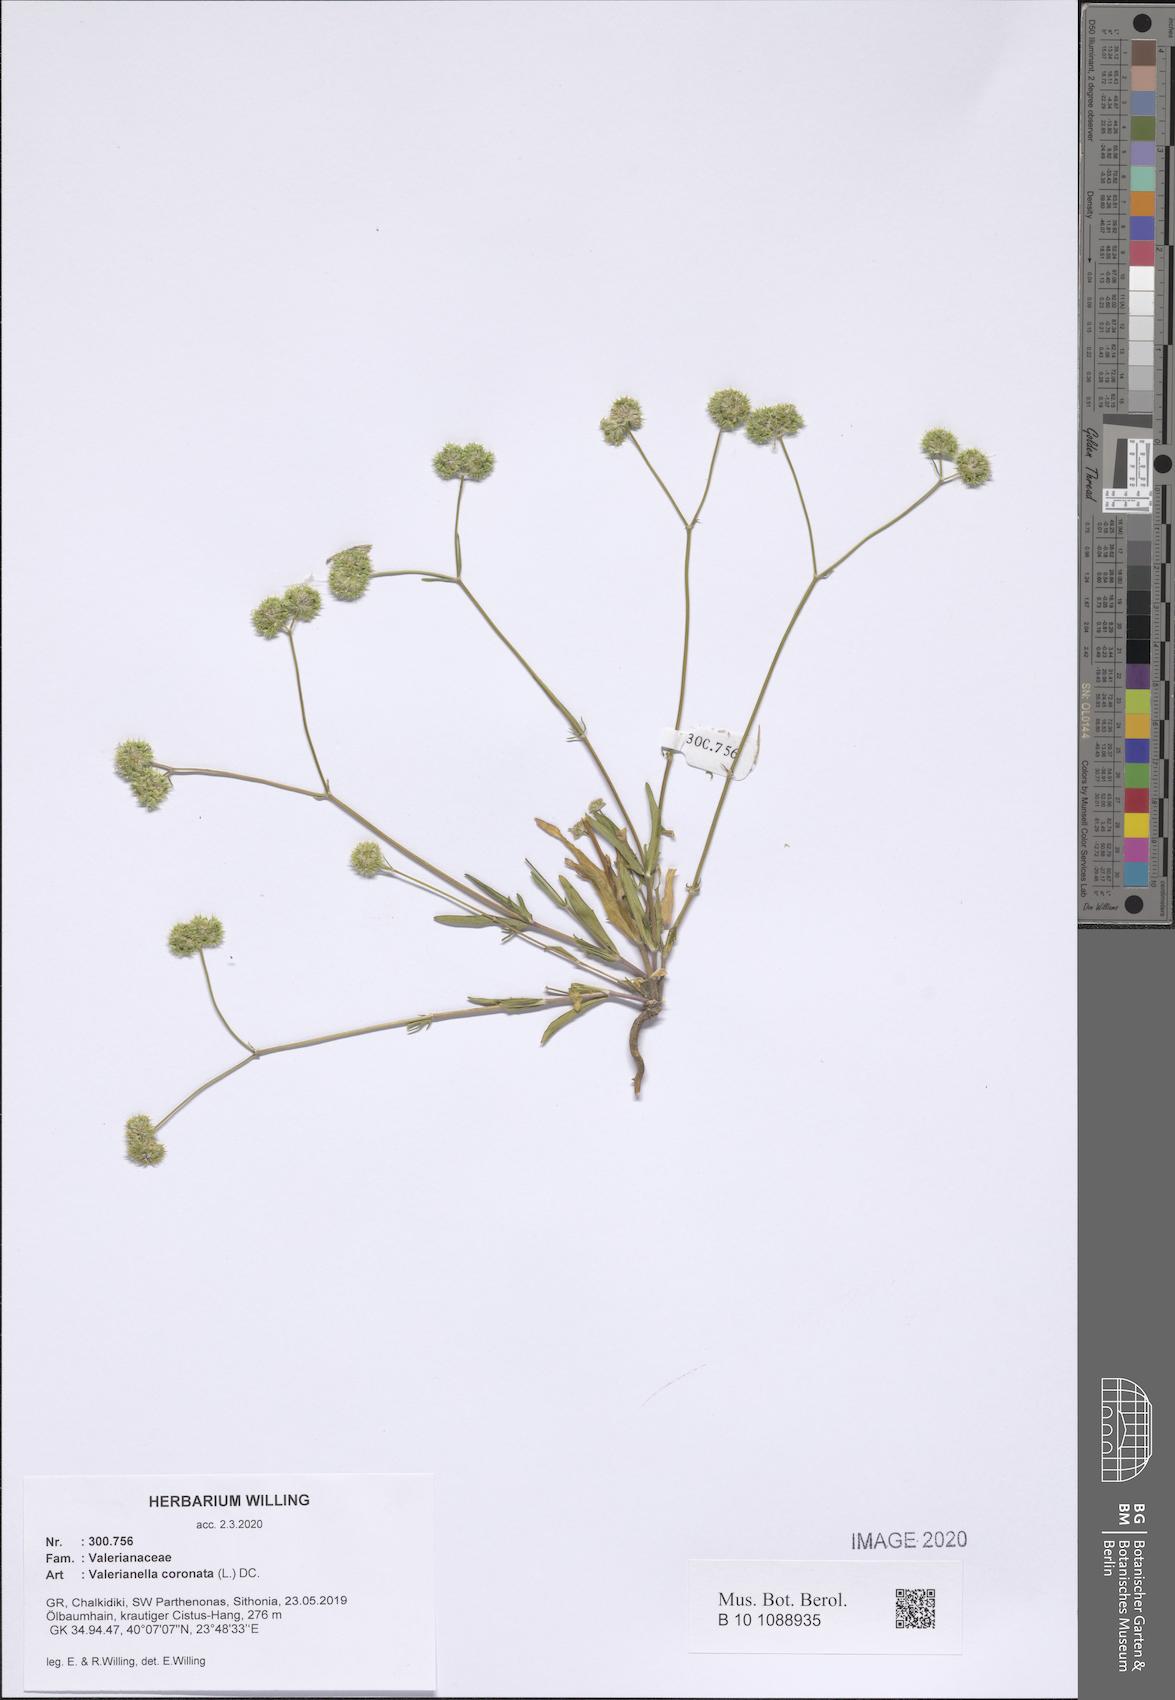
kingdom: Plantae
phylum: Tracheophyta
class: Magnoliopsida
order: Dipsacales
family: Caprifoliaceae
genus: Valerianella
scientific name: Valerianella coronata
